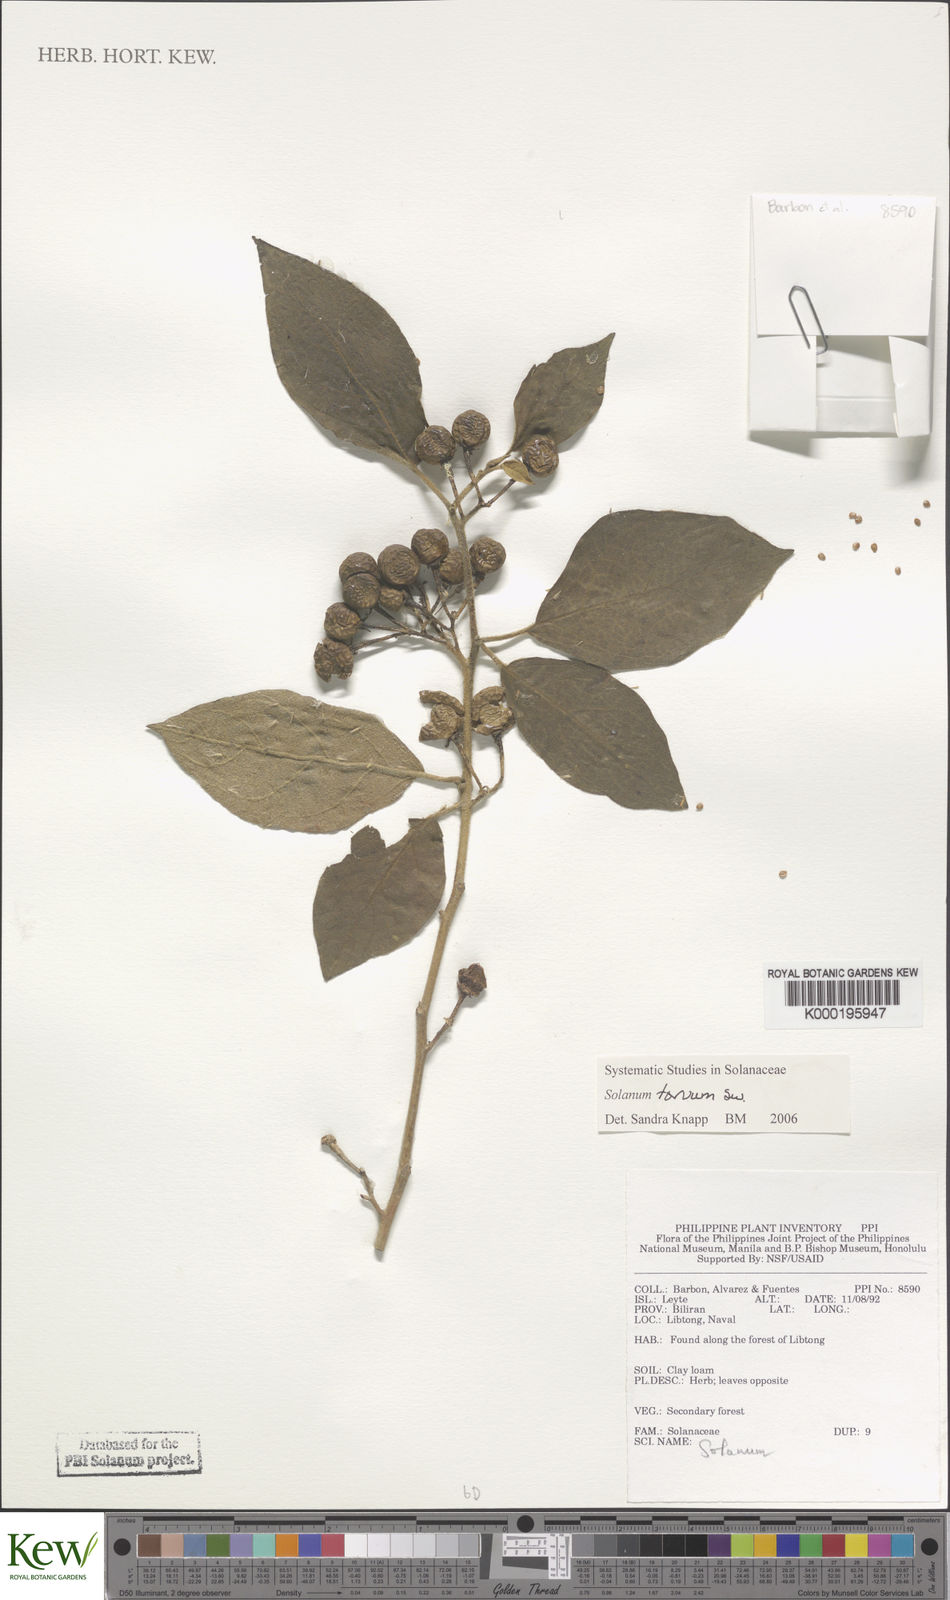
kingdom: Plantae
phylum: Tracheophyta
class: Magnoliopsida
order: Solanales
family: Solanaceae
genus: Solanum
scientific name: Solanum torvum
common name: Turkey berry
